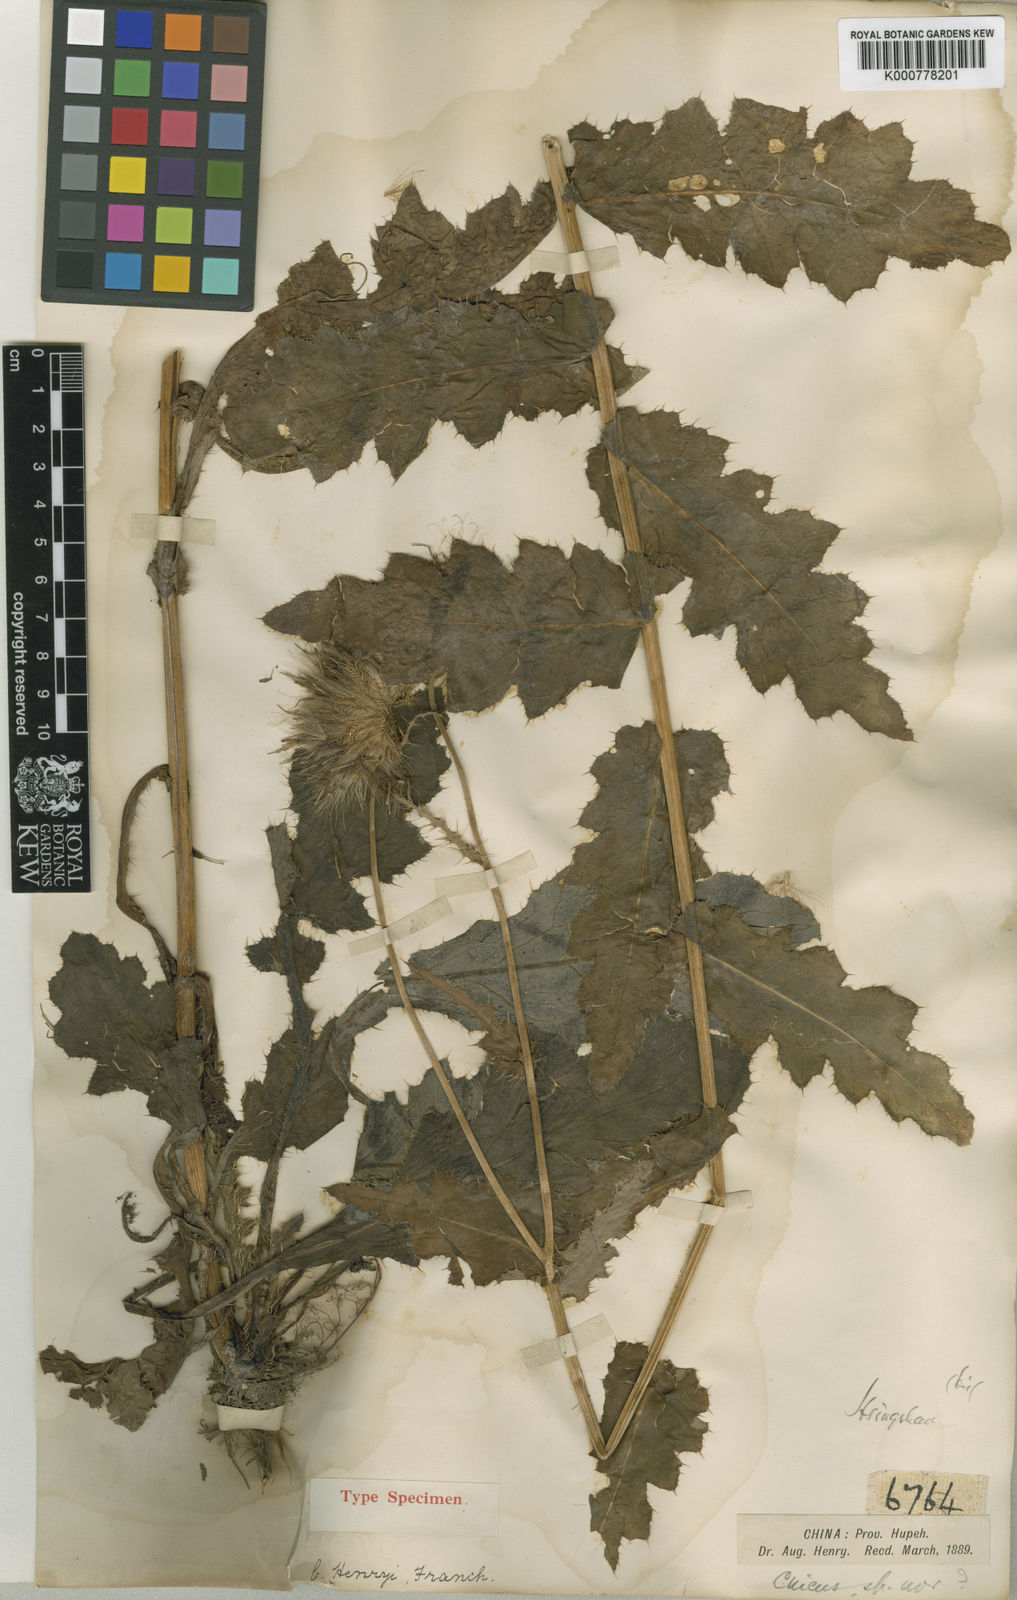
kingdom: Plantae
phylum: Tracheophyta
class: Magnoliopsida
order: Asterales
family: Asteraceae
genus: Cirsium
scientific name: Cirsium henryi
